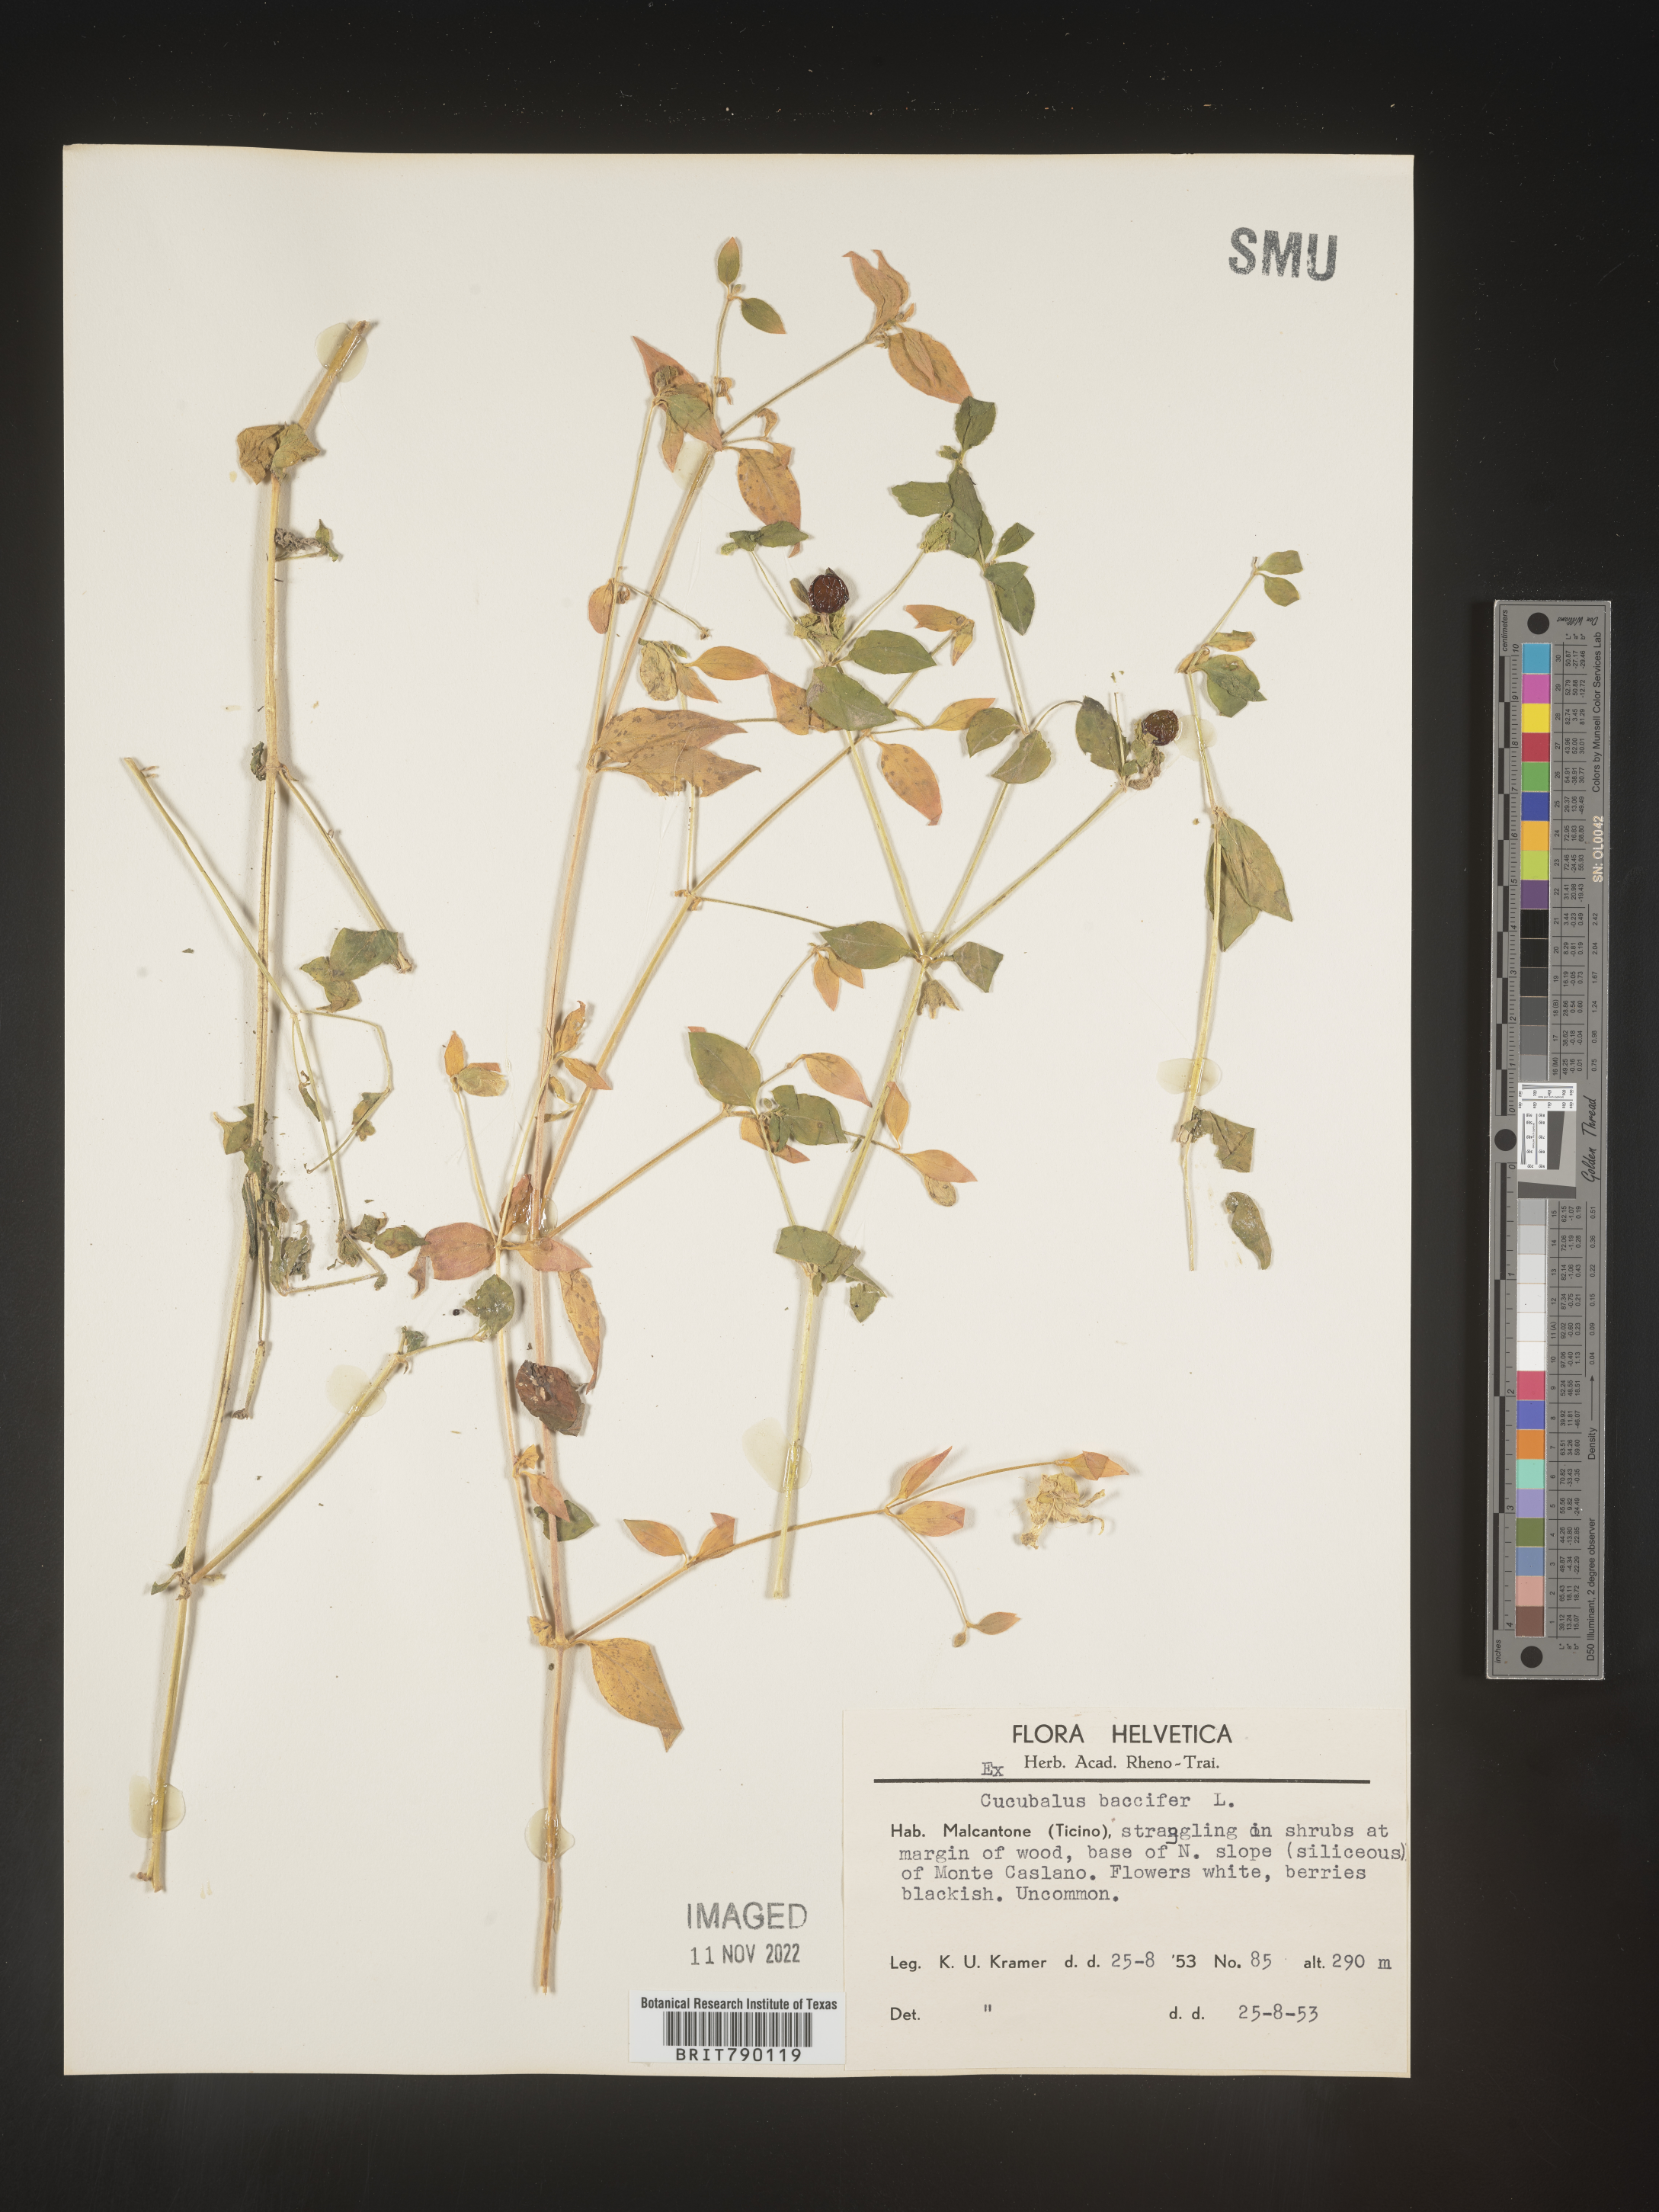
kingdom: Animalia
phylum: Cnidaria
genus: Cucubalus
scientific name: Cucubalus
